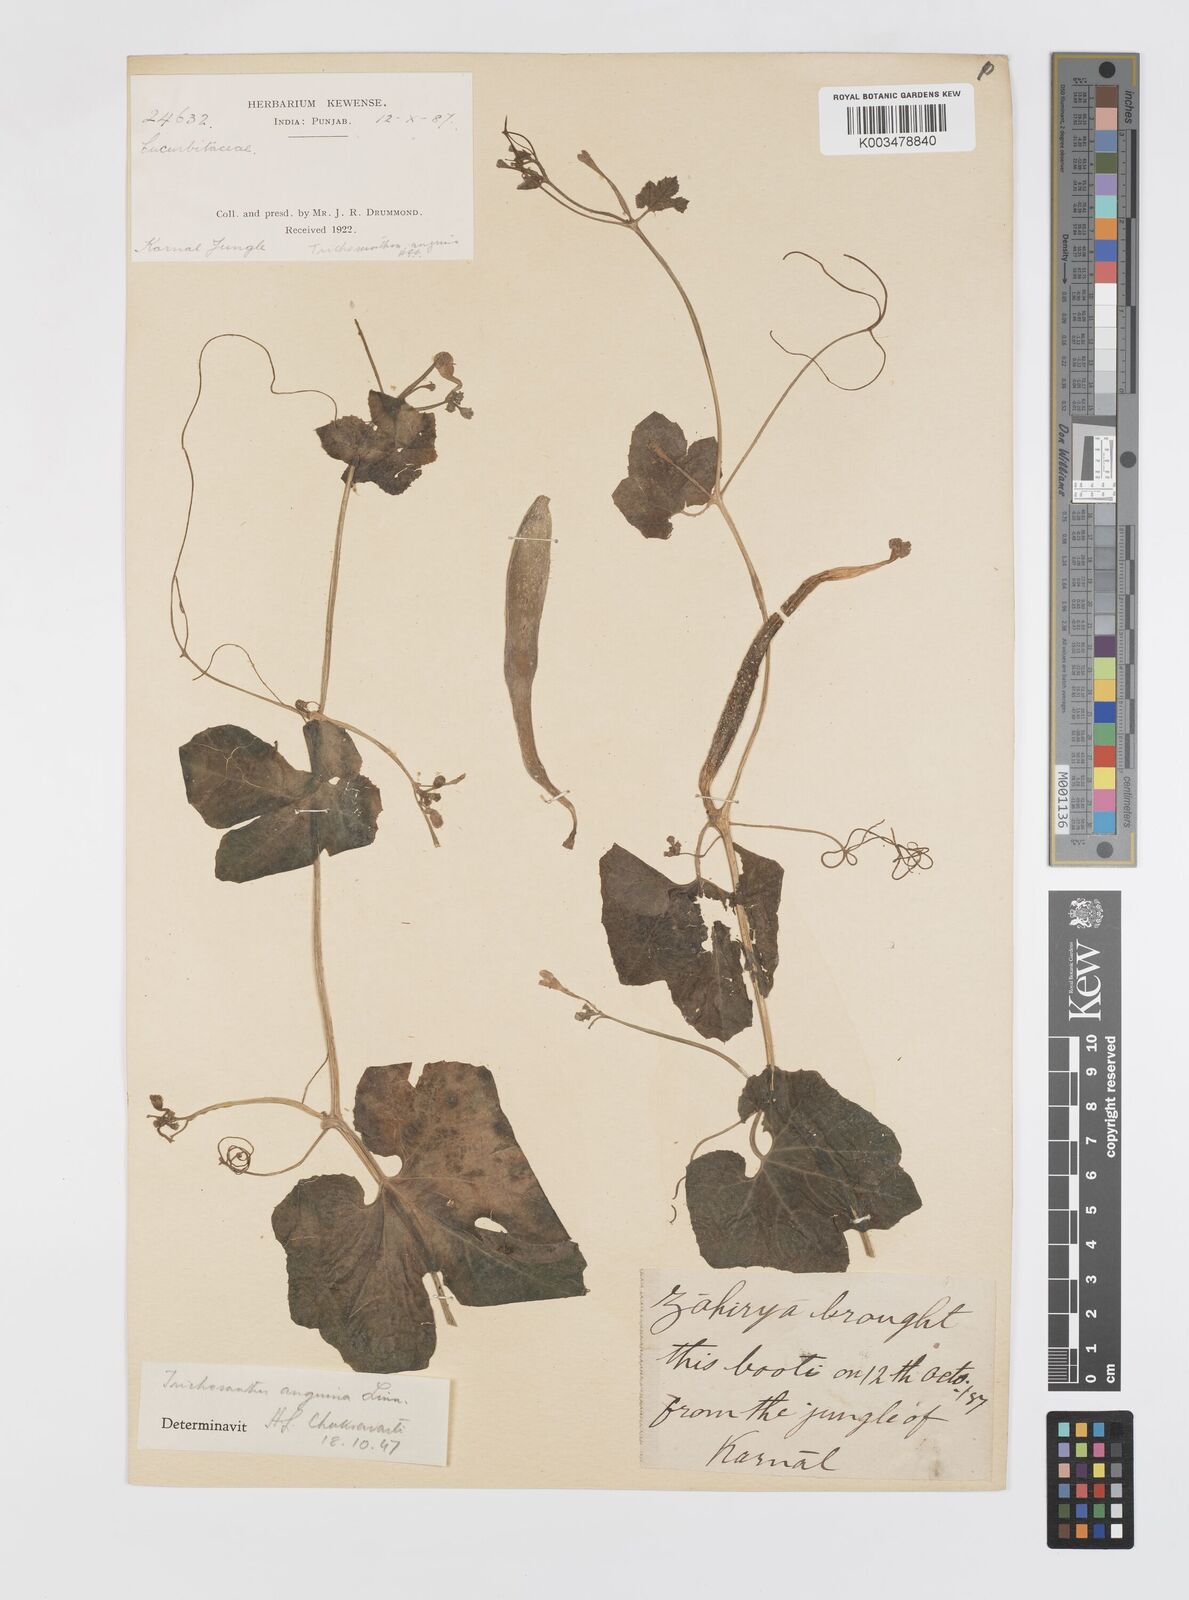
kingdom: Plantae
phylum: Tracheophyta
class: Magnoliopsida
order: Cucurbitales
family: Cucurbitaceae
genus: Trichosanthes
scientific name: Trichosanthes cucumerina
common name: Snakegourd
